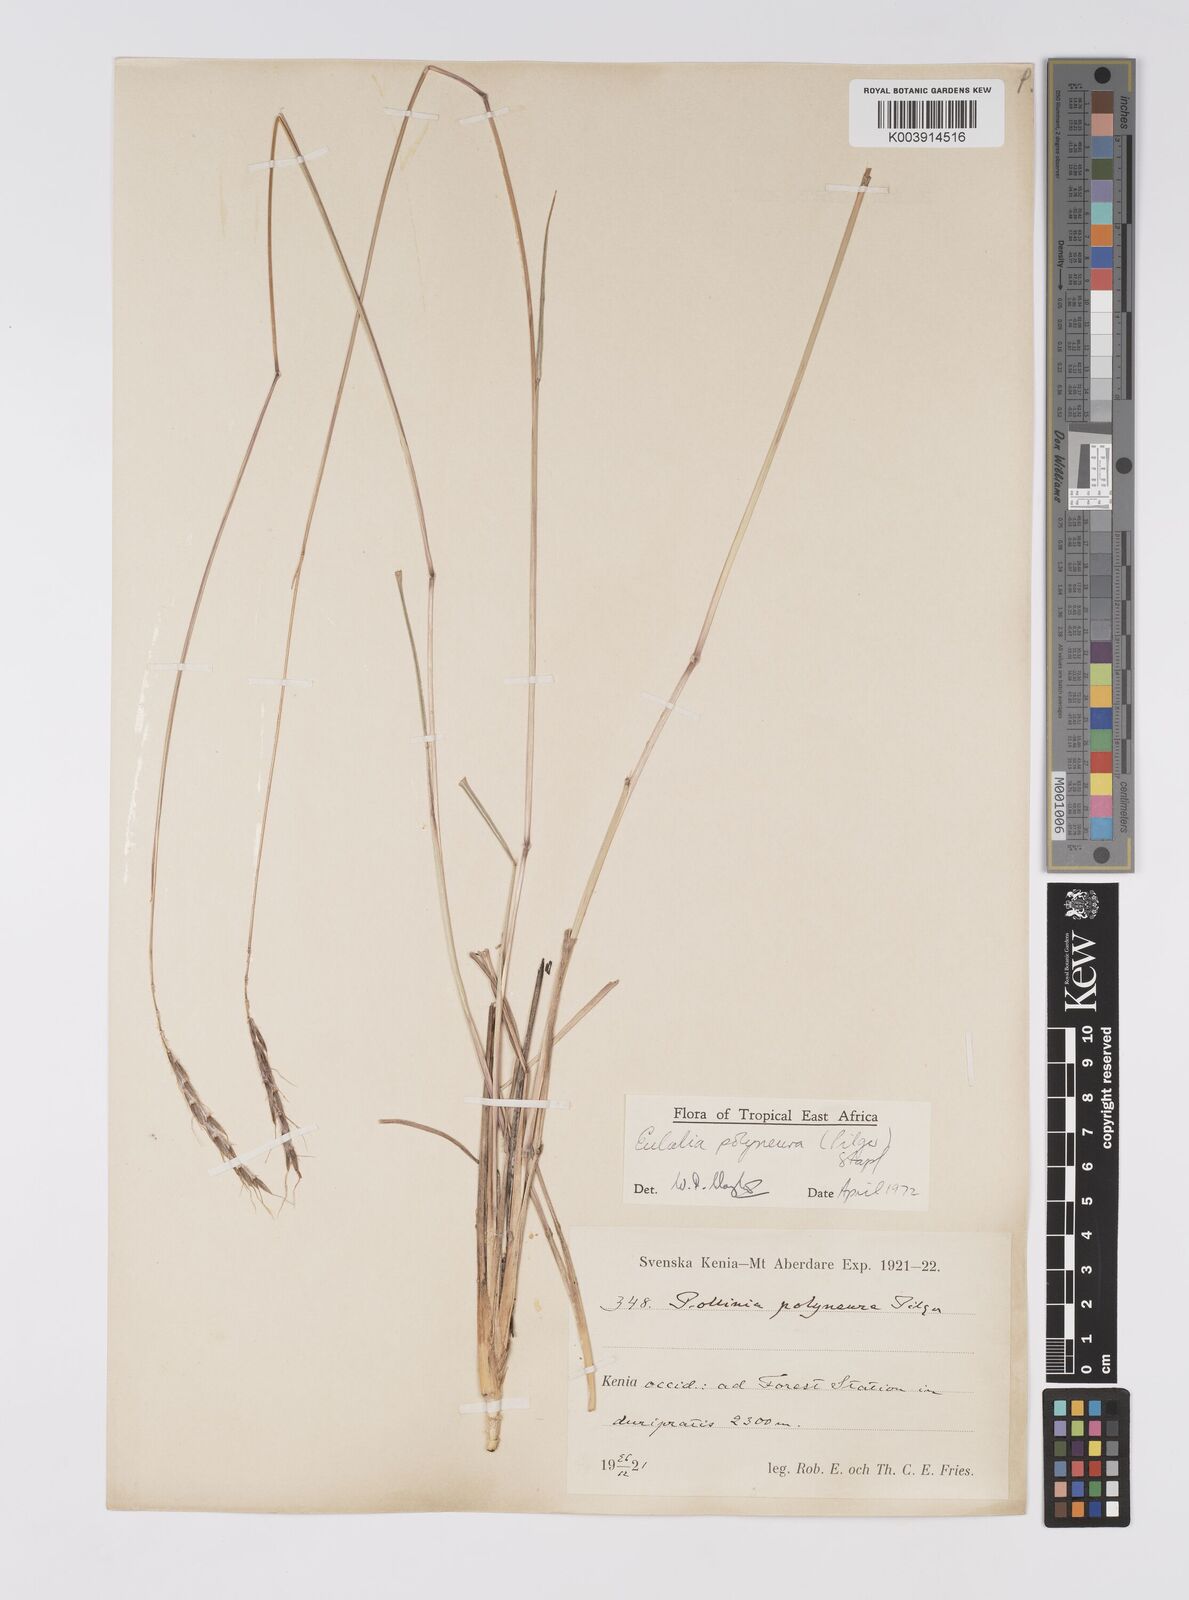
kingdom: Plantae
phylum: Tracheophyta
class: Liliopsida
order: Poales
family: Poaceae
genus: Eulalia
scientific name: Eulalia polyneura
